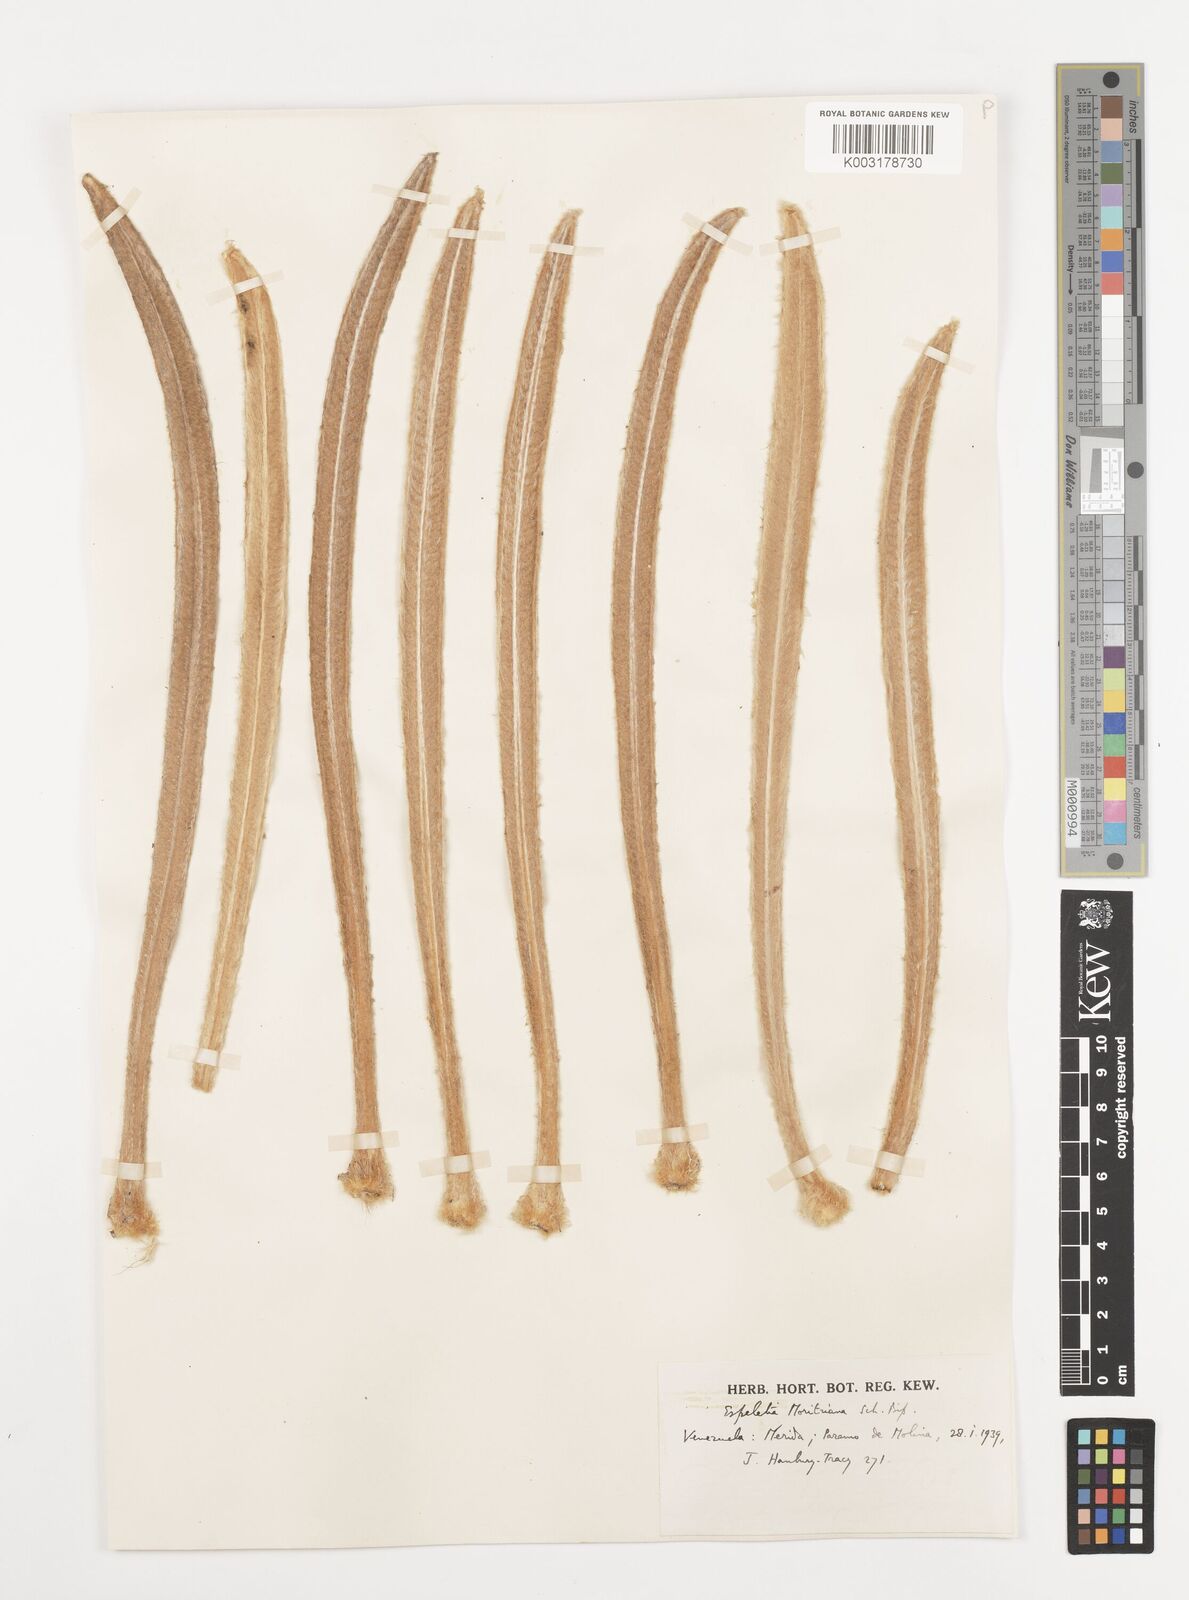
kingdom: Plantae
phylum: Tracheophyta
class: Magnoliopsida
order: Asterales
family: Asteraceae
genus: Espeletia
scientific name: Espeletia moritziana
